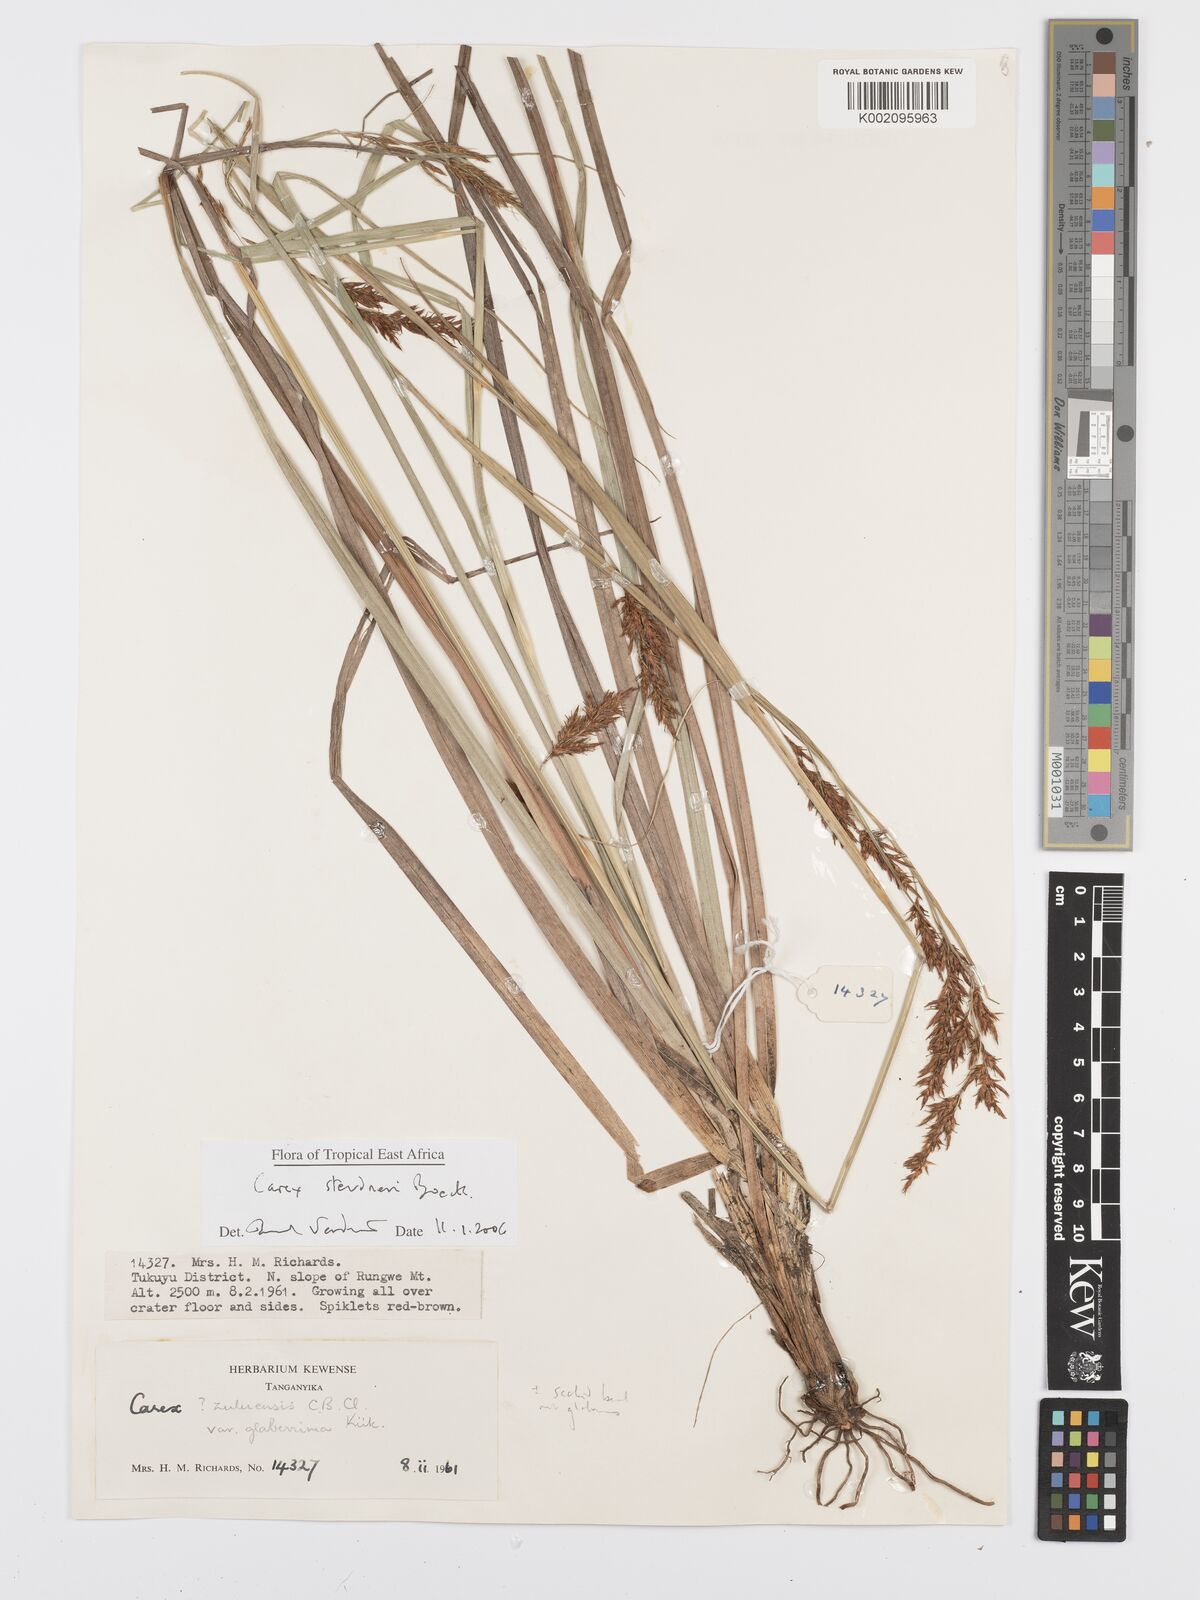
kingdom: Plantae
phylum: Tracheophyta
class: Liliopsida
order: Poales
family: Cyperaceae
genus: Carex
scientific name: Carex steudneri
